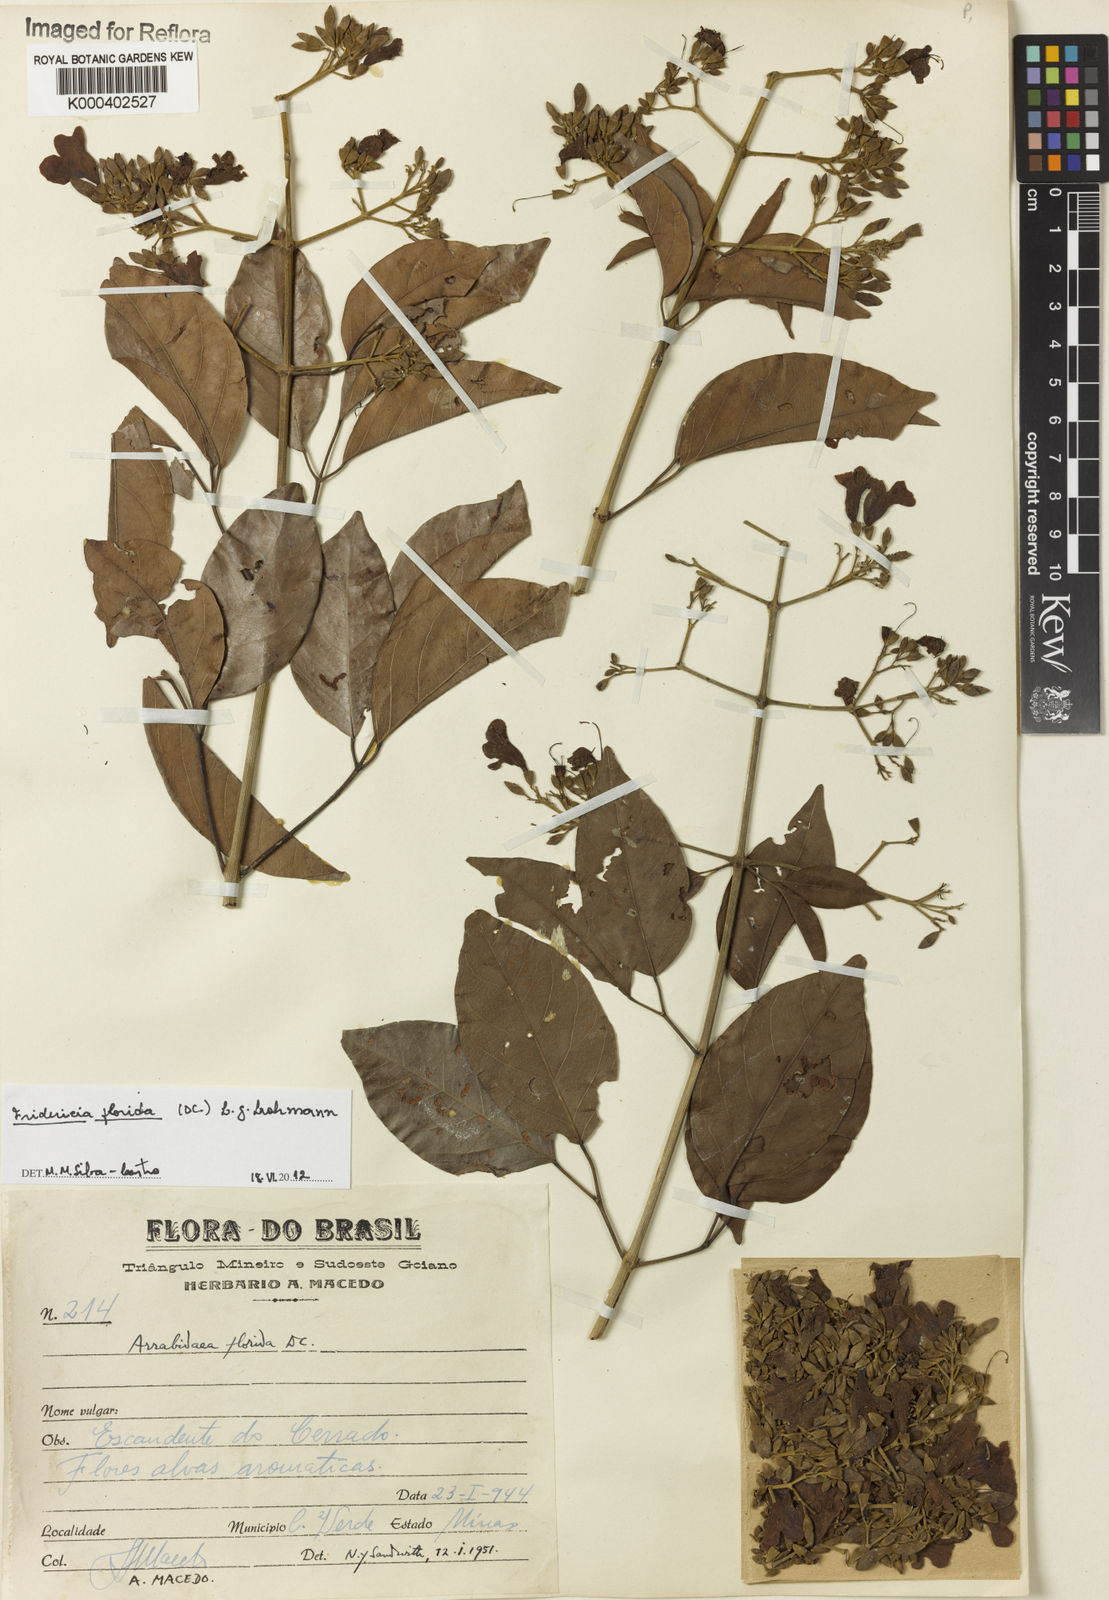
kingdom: Plantae
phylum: Tracheophyta
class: Magnoliopsida
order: Lamiales
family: Bignoniaceae
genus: Fridericia
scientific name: Fridericia florida
